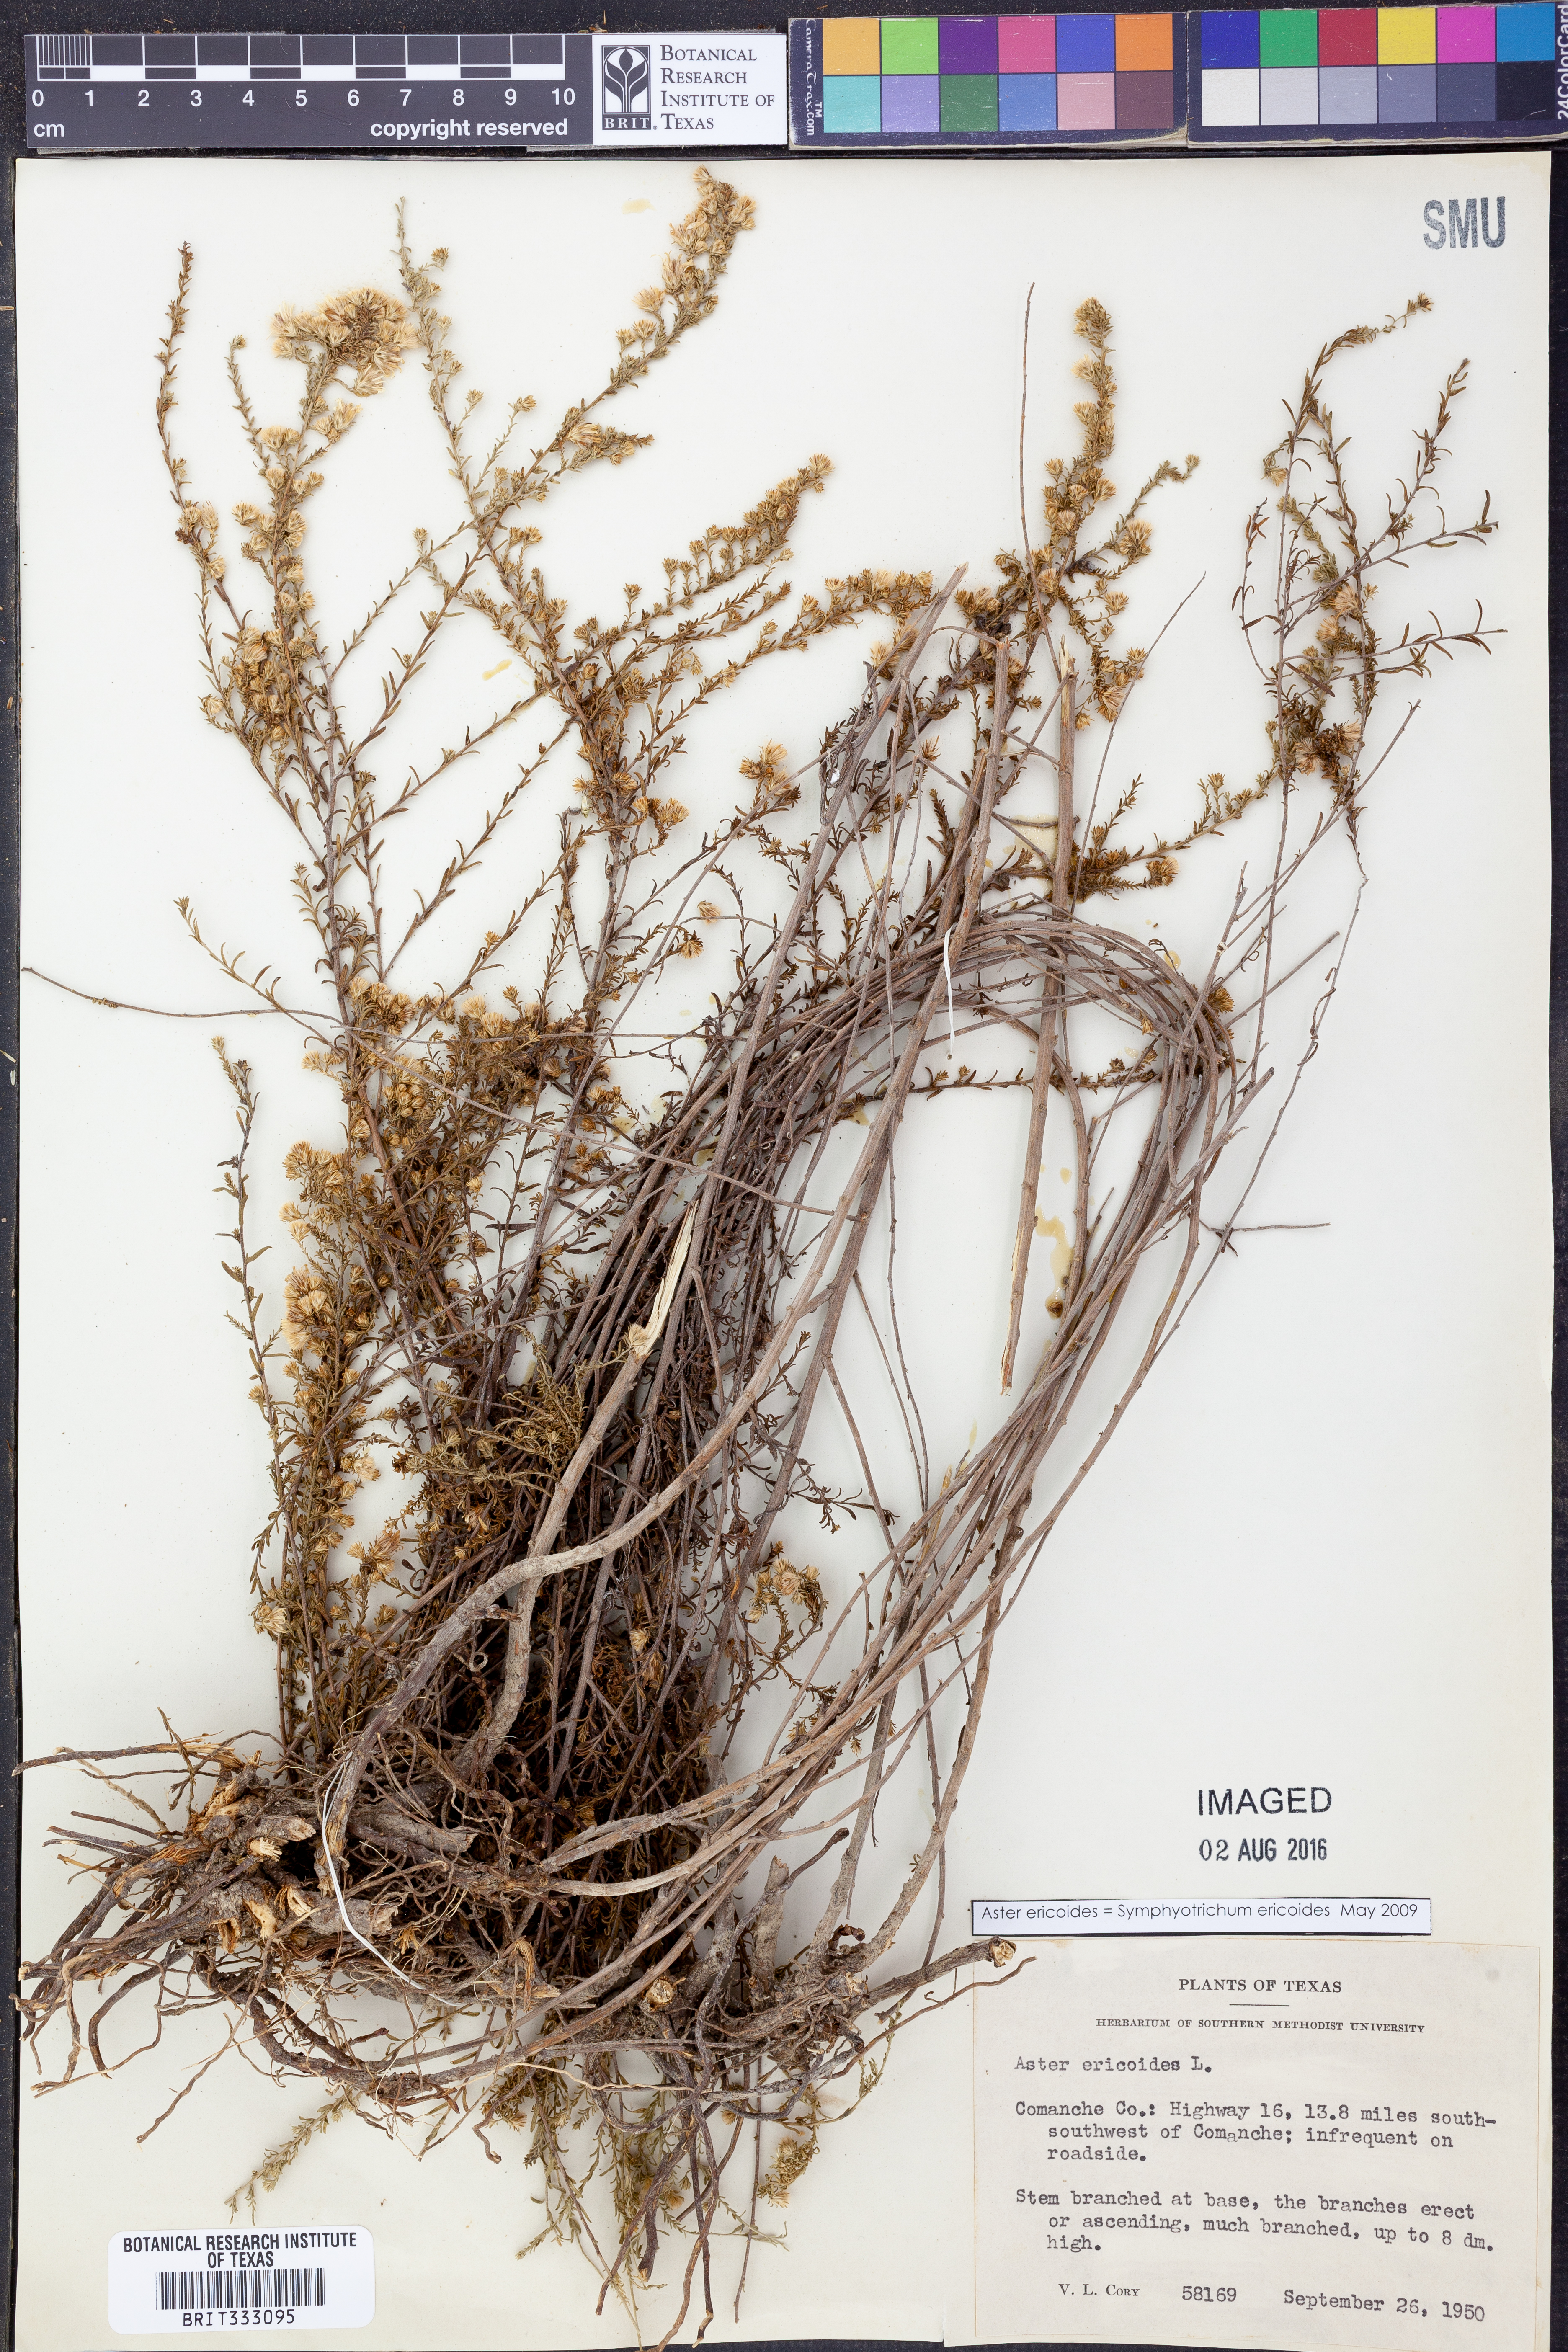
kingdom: Plantae
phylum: Tracheophyta
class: Magnoliopsida
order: Asterales
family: Asteraceae
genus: Symphyotrichum
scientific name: Symphyotrichum ericoides
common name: Heath aster
